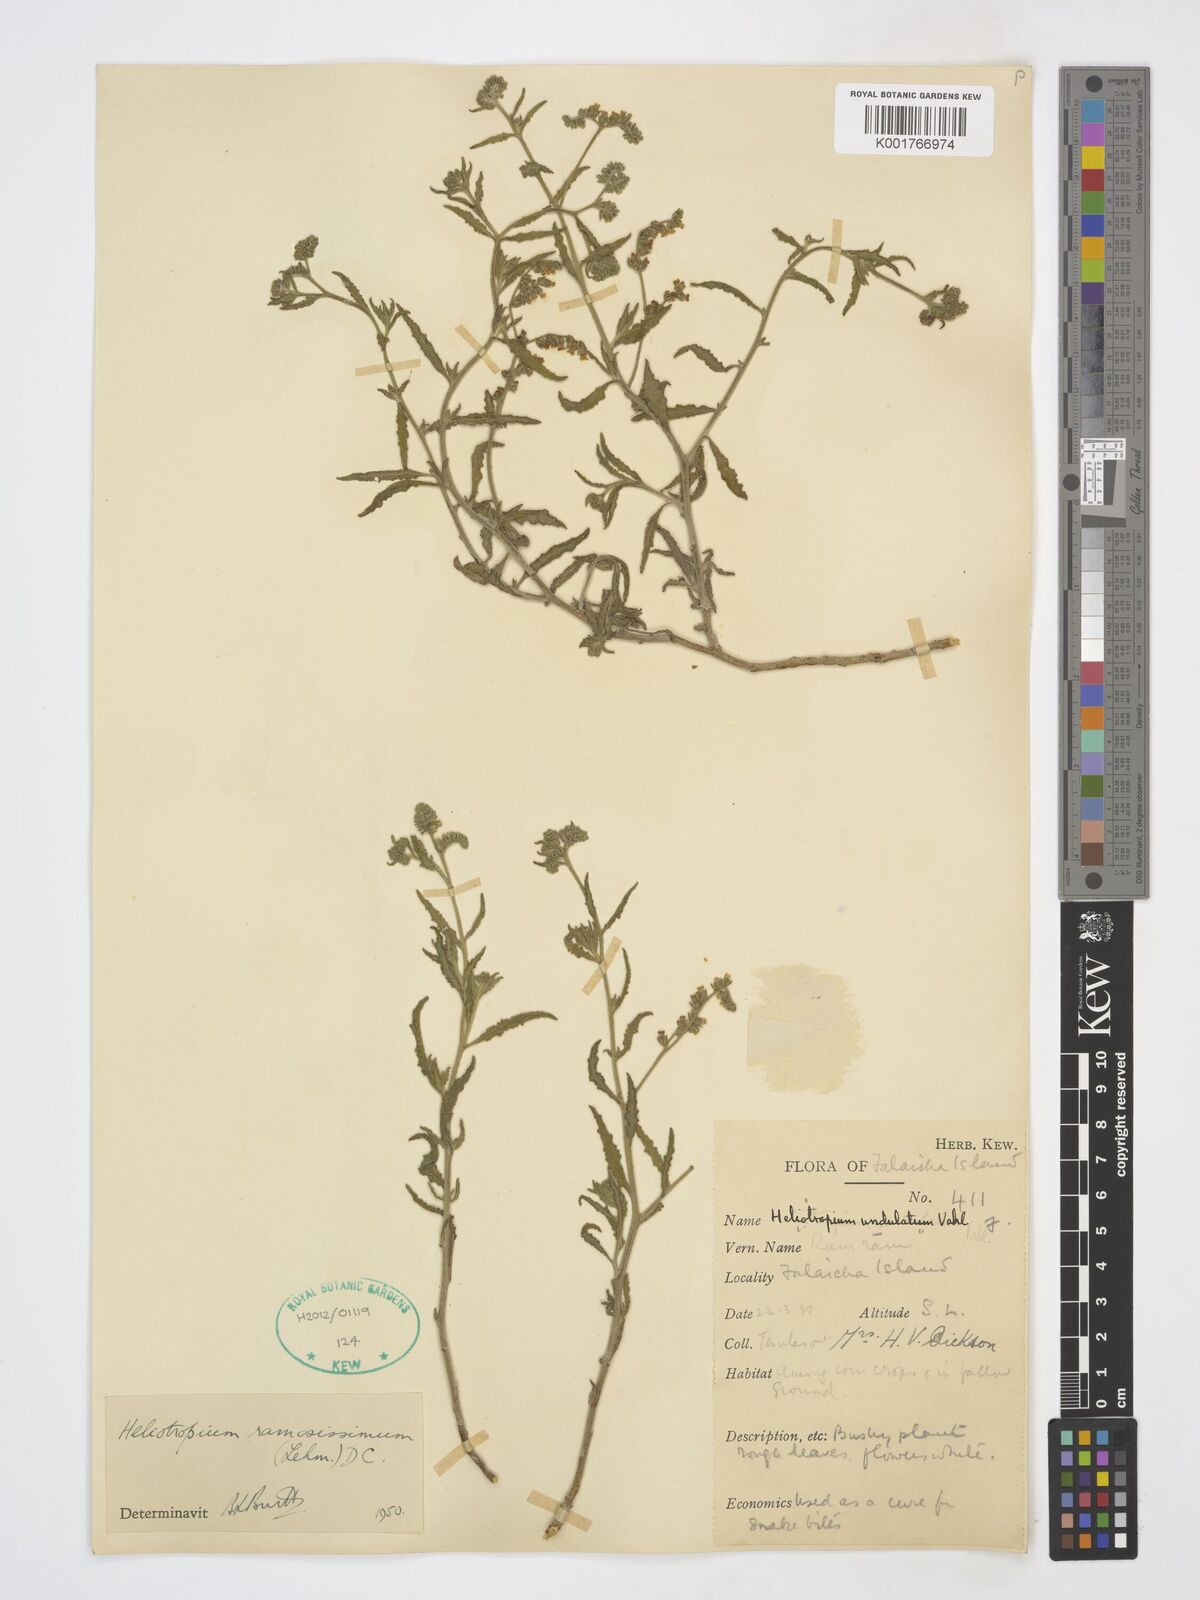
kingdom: Plantae
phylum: Tracheophyta
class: Magnoliopsida
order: Boraginales
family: Heliotropiaceae
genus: Heliotropium
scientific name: Heliotropium bacciferum
